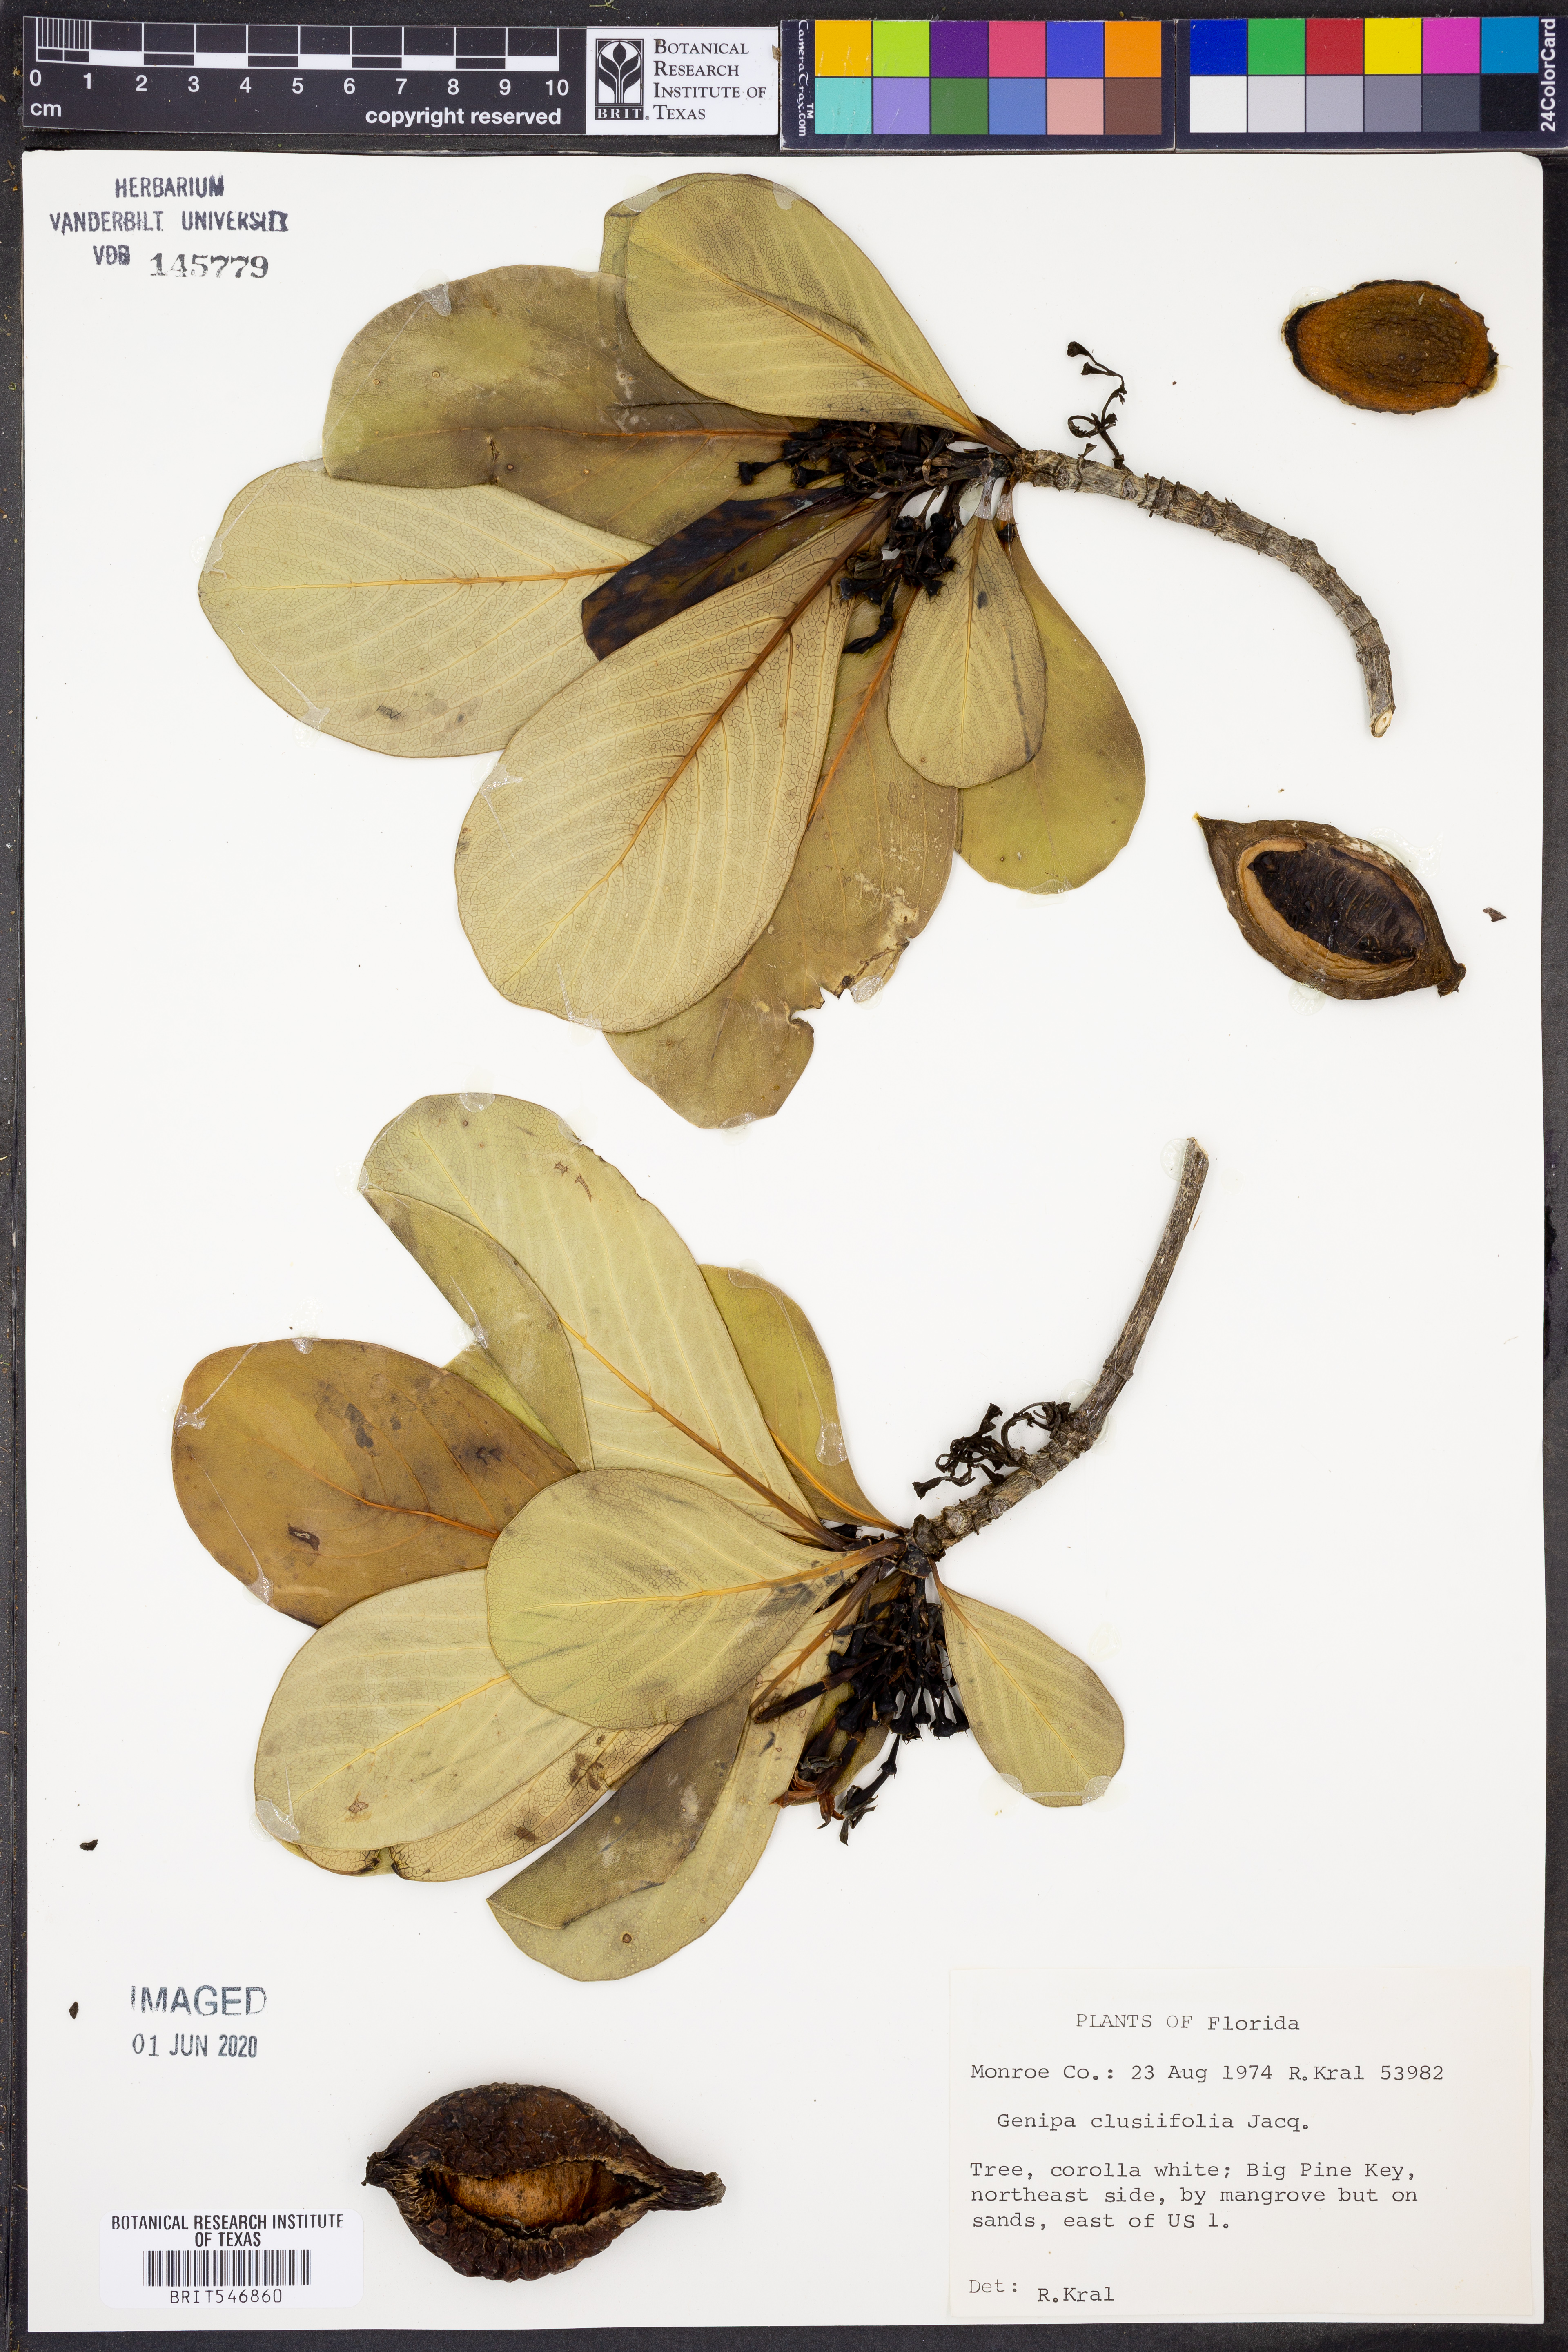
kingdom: Plantae
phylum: Tracheophyta
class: Magnoliopsida
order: Gentianales
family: Rubiaceae
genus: Casasia
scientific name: Casasia clusiifolia
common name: Seven-year apple
